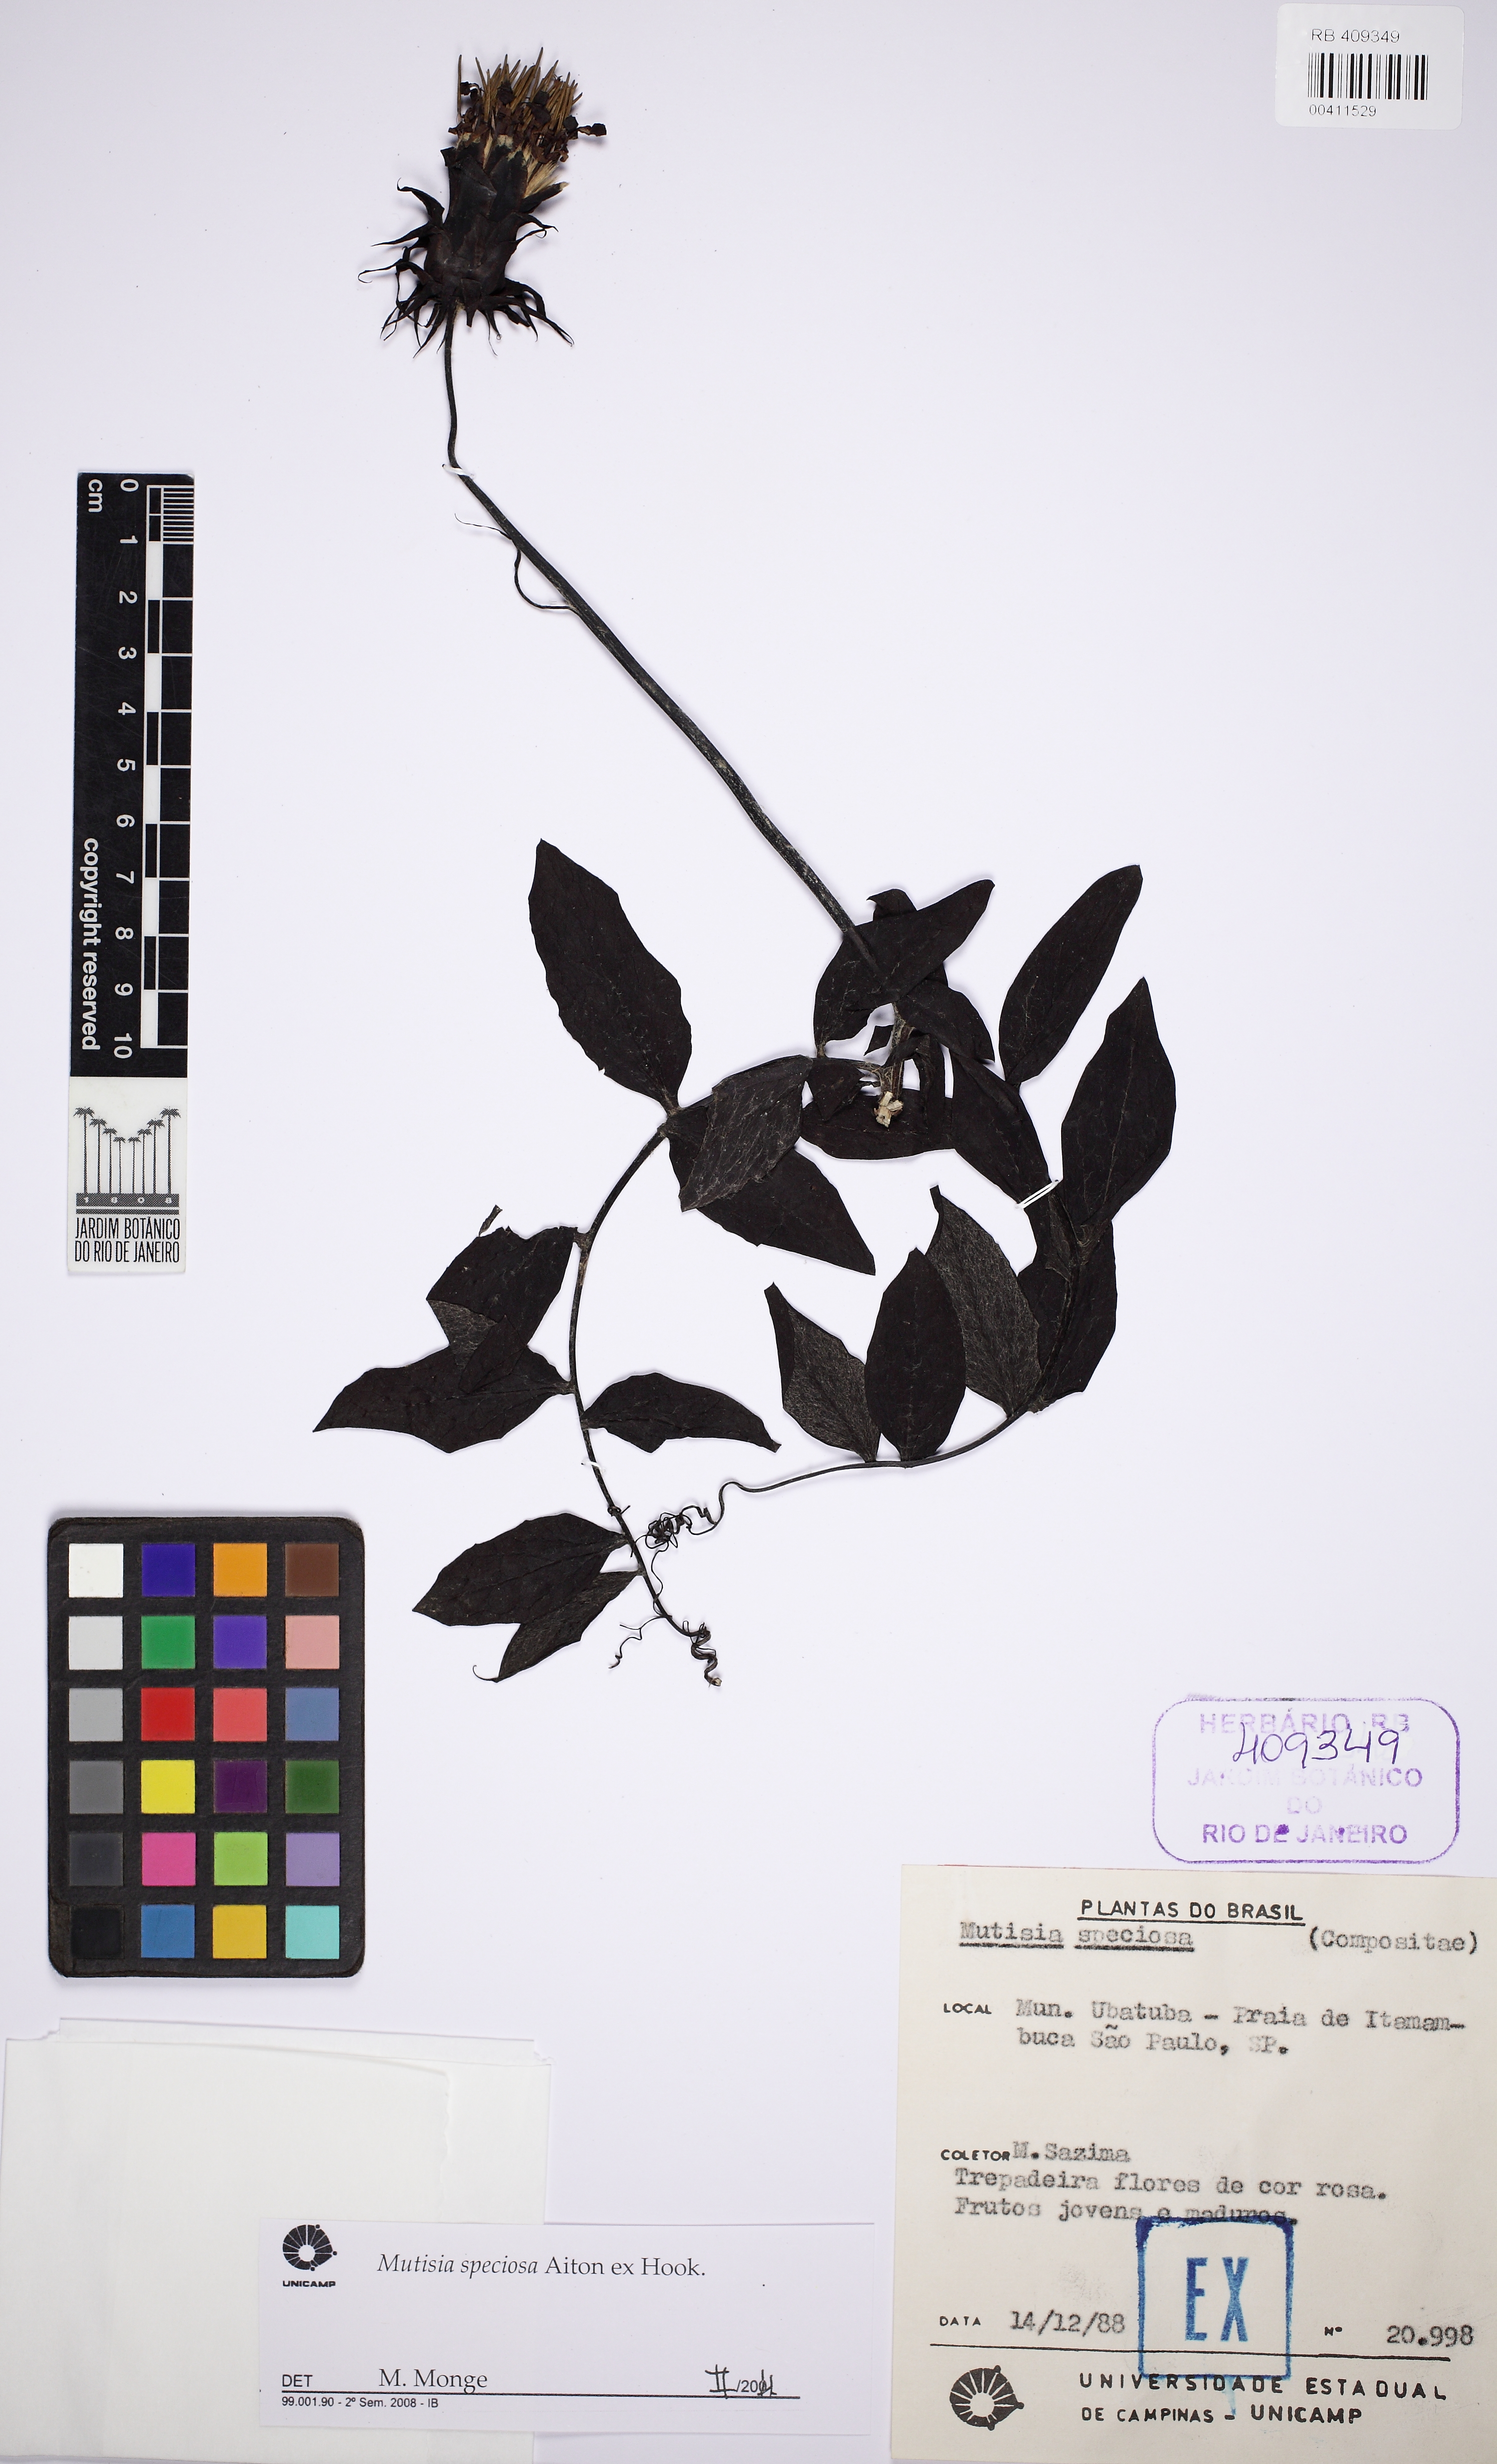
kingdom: Plantae
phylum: Tracheophyta
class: Magnoliopsida
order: Asterales
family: Asteraceae
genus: Mutisia
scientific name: Mutisia speciosa
